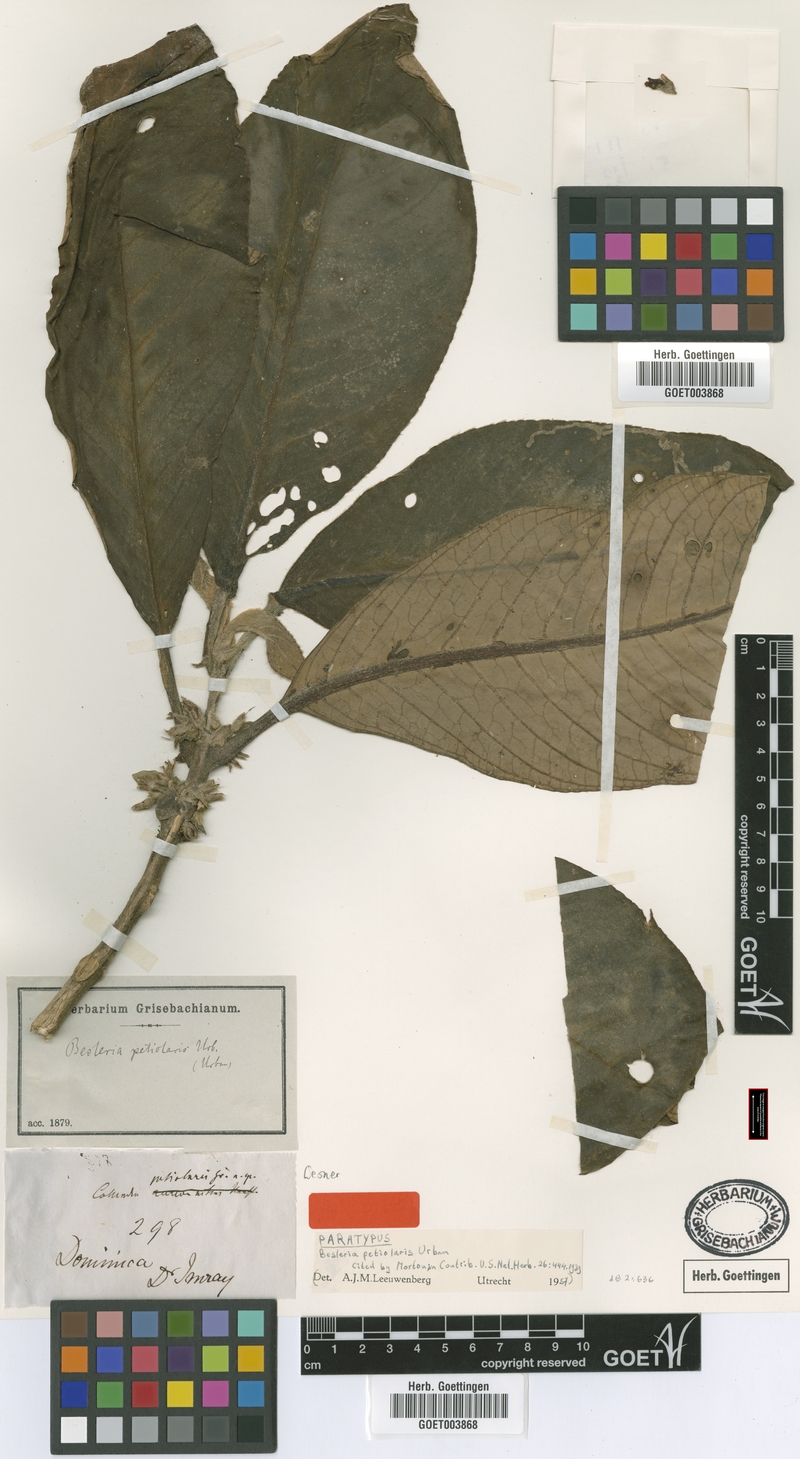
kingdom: Plantae
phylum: Tracheophyta
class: Magnoliopsida
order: Lamiales
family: Gesneriaceae
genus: Besleria
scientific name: Besleria petiolaris
